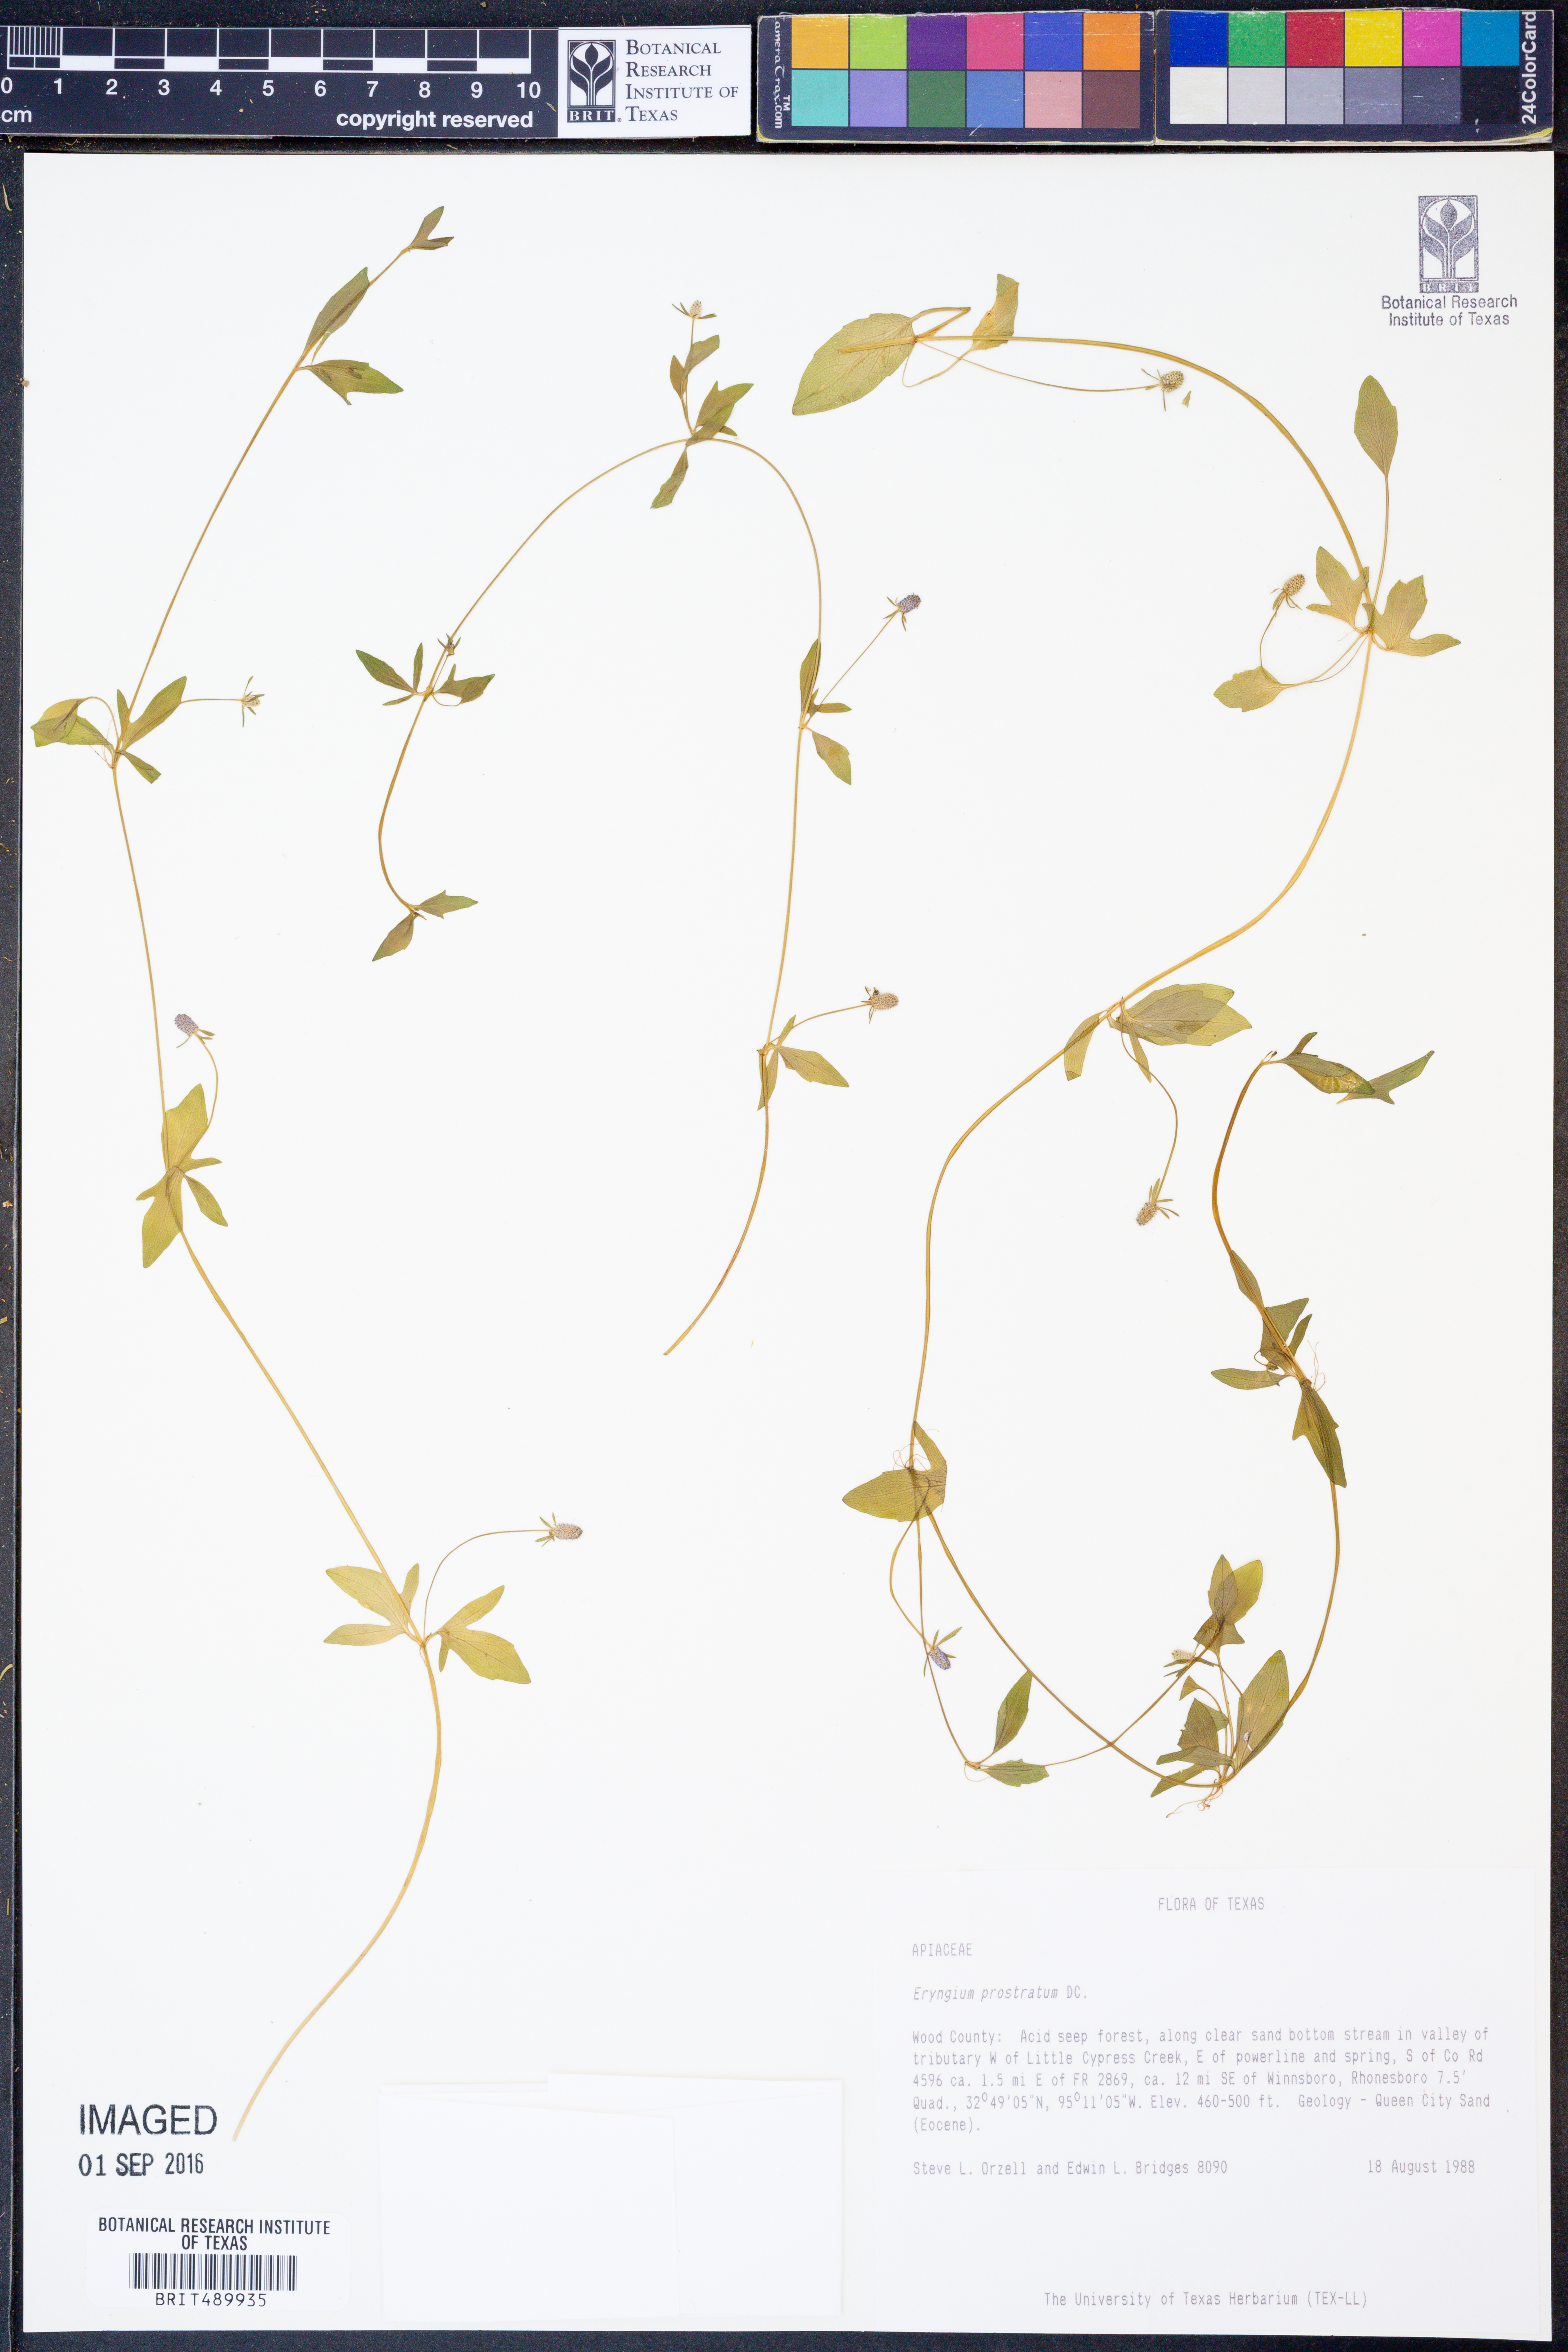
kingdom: Plantae
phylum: Tracheophyta
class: Magnoliopsida
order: Apiales
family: Apiaceae
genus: Eryngium
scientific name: Eryngium prostratum
